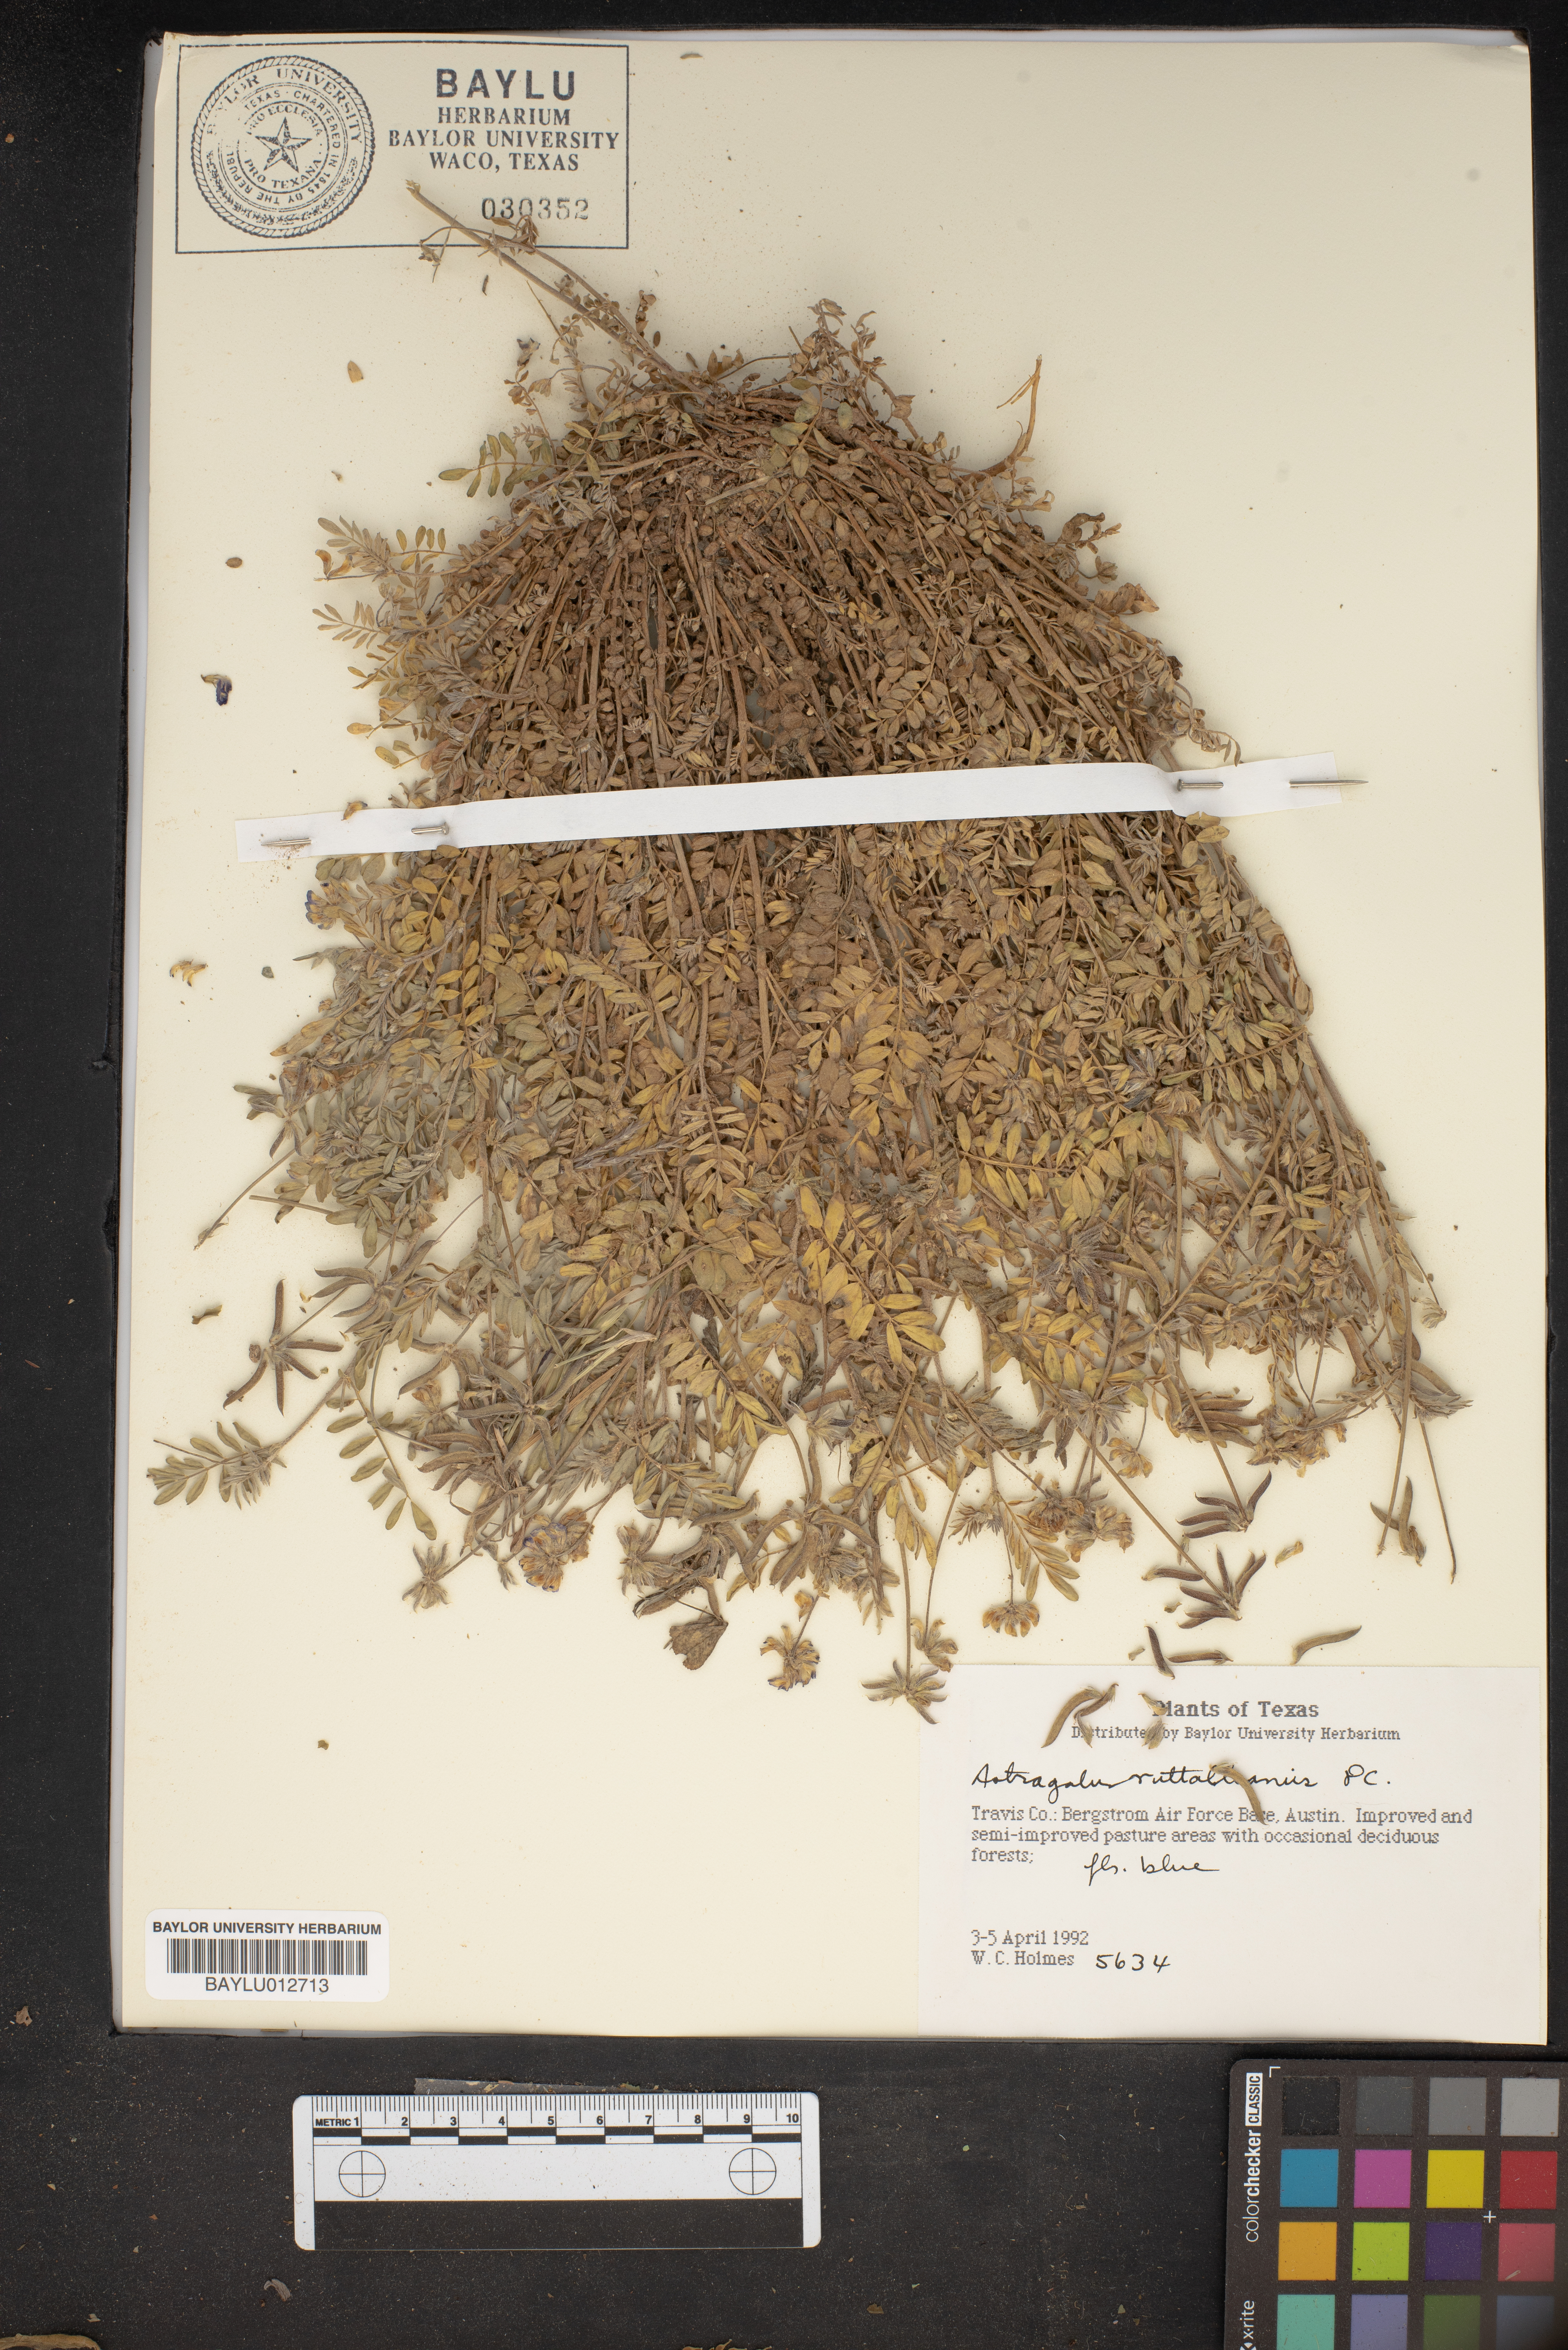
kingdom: Plantae
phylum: Tracheophyta
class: Magnoliopsida
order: Fabales
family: Fabaceae
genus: Astragalus
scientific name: Astragalus nuttallianus
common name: Smallflowered milkvetch
